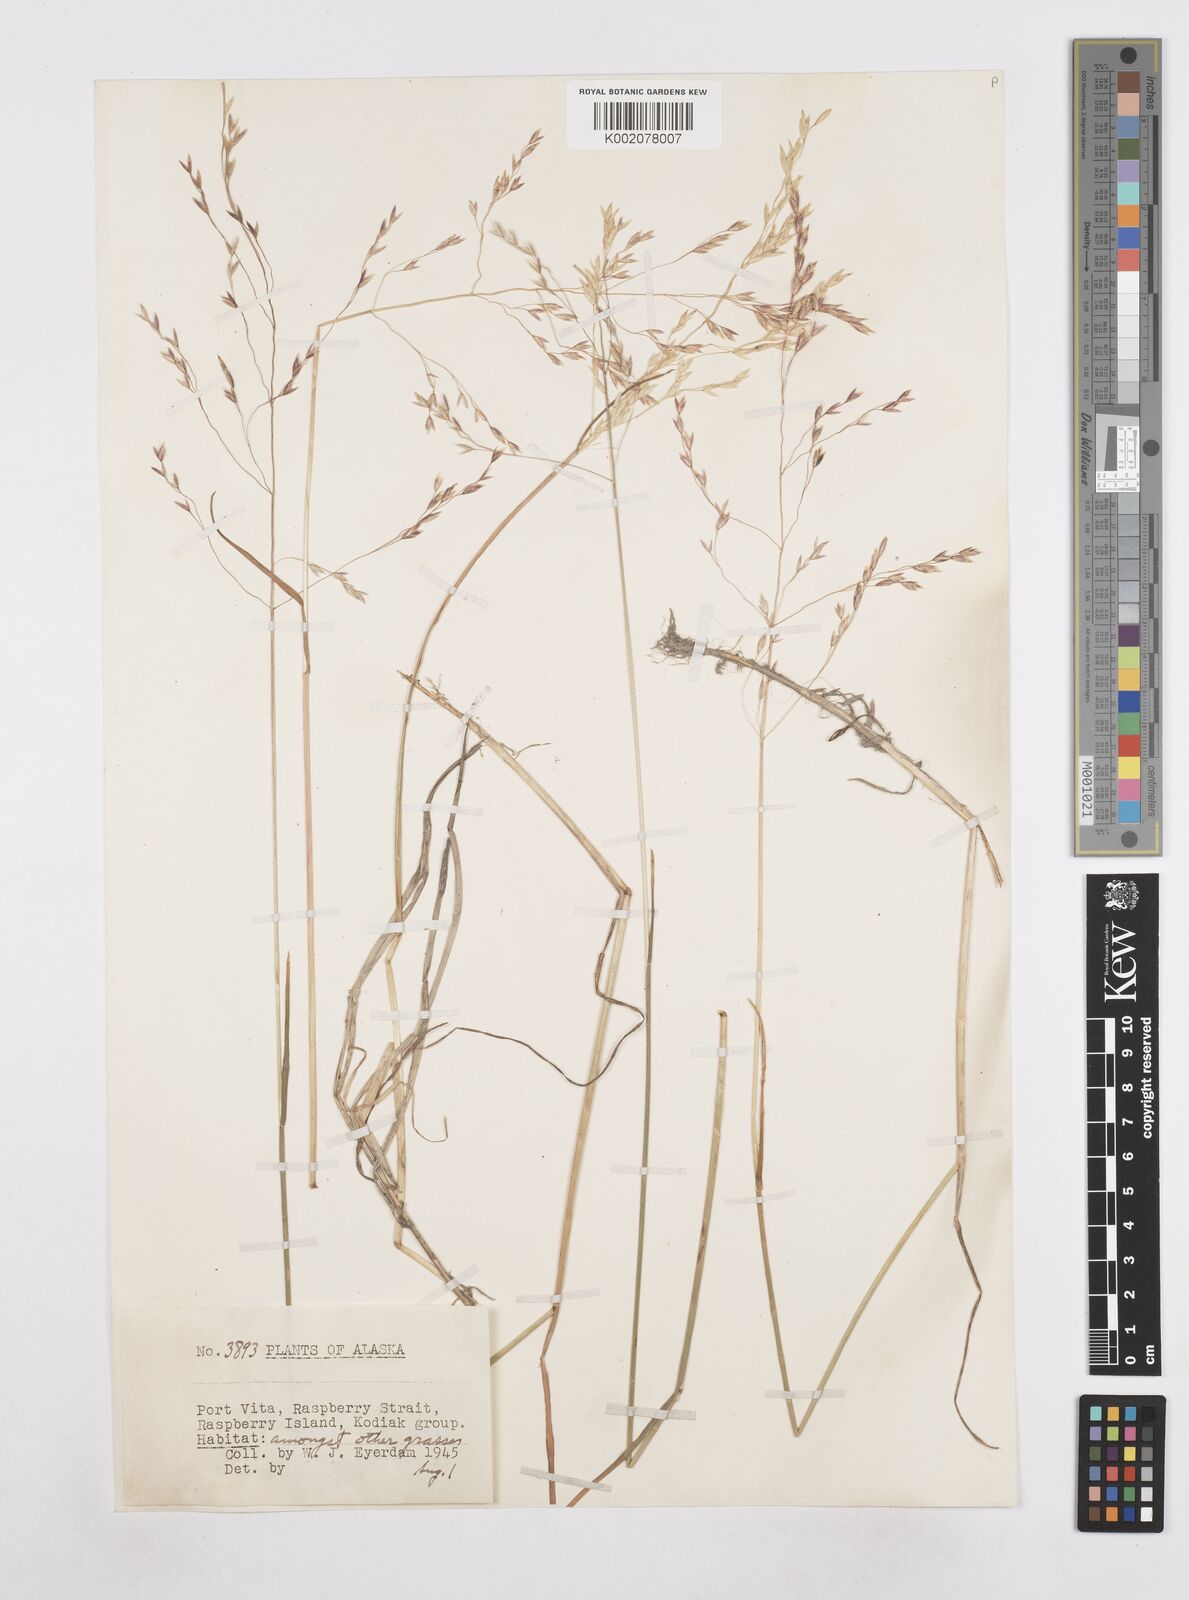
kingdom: Plantae
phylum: Tracheophyta
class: Liliopsida
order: Poales
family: Poaceae
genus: Poa
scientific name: Poa
